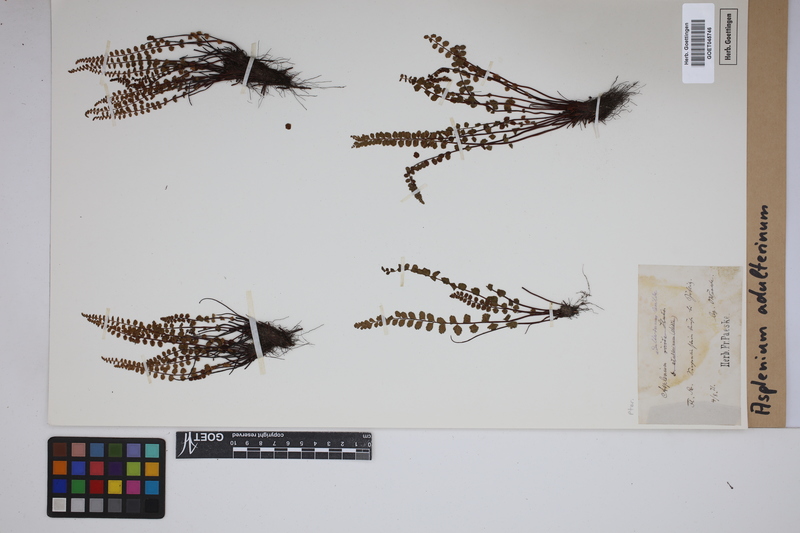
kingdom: Plantae
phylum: Tracheophyta
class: Polypodiopsida
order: Polypodiales
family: Aspleniaceae
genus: Asplenium
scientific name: Asplenium adulterinum
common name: Adulterated spleenwort
